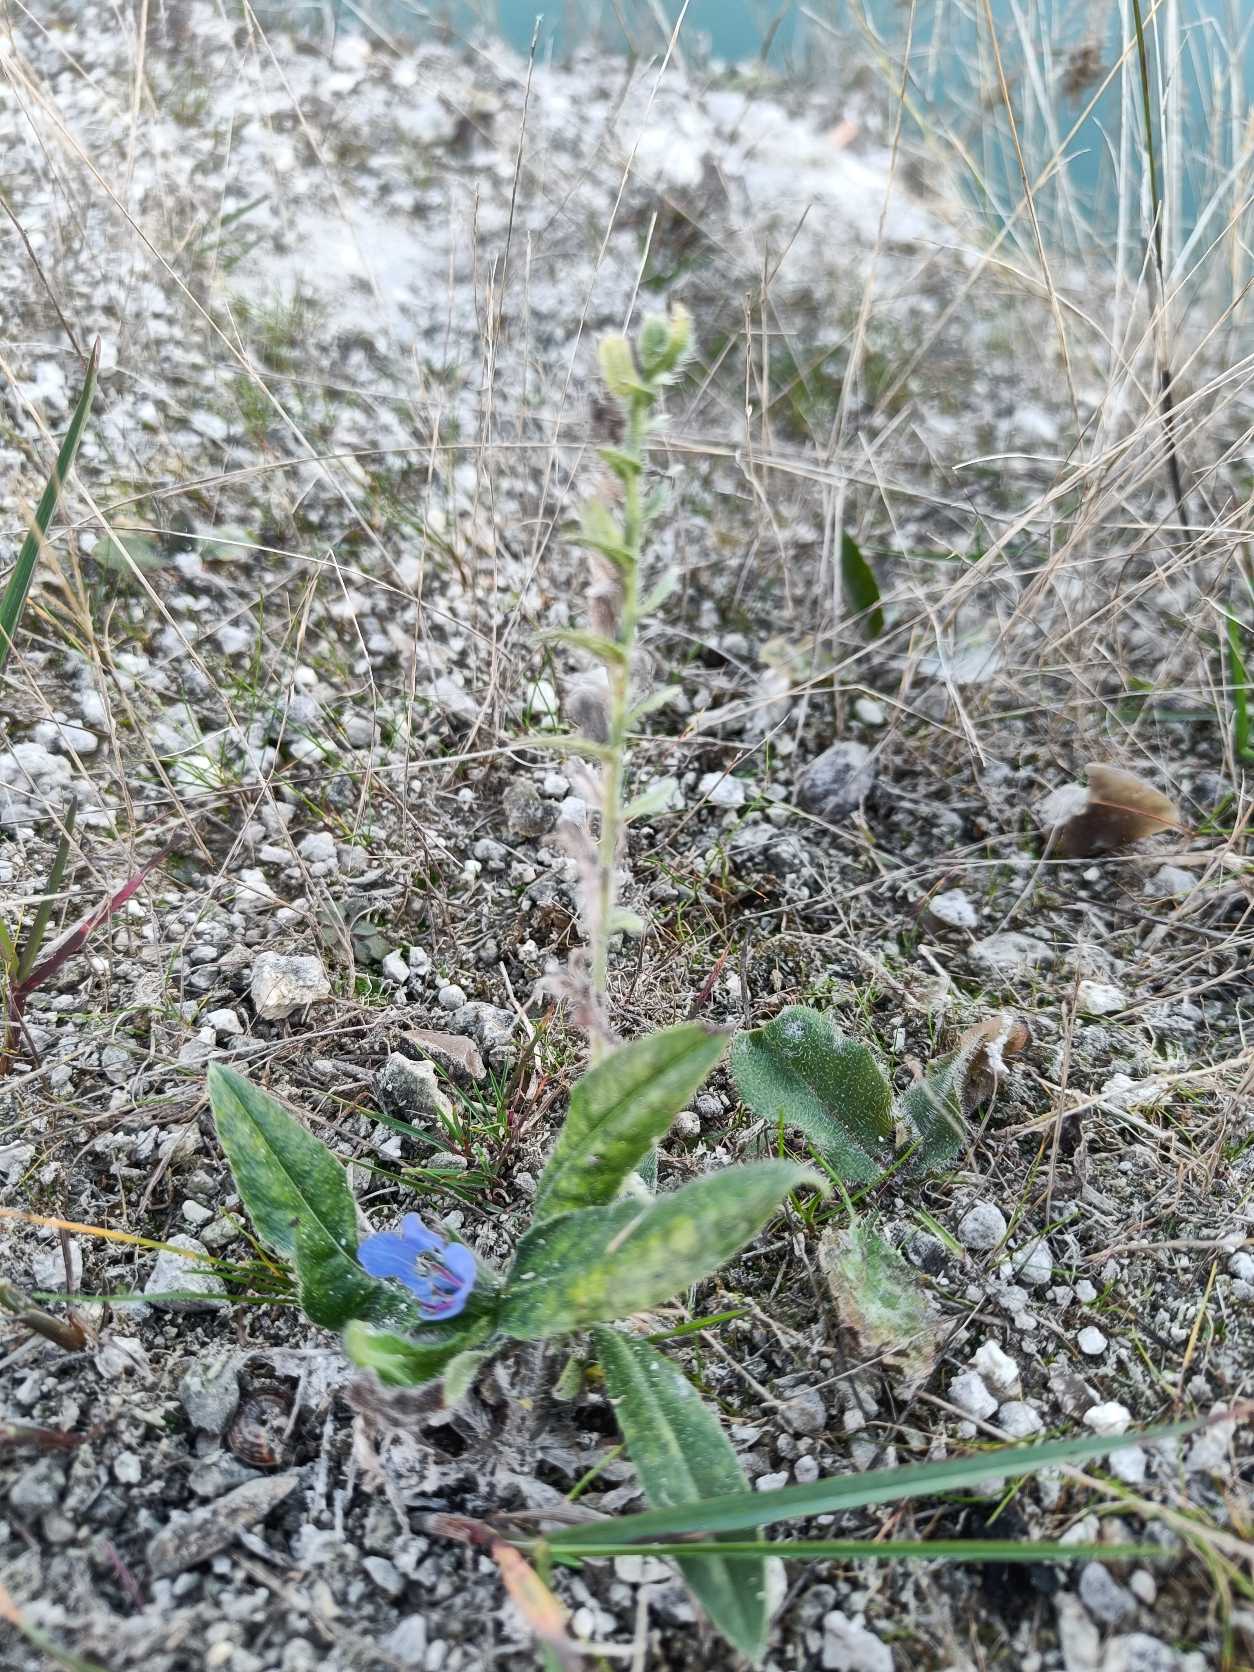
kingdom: Plantae
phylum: Tracheophyta
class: Magnoliopsida
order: Boraginales
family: Boraginaceae
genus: Echium
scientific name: Echium vulgare
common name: Slangehoved
